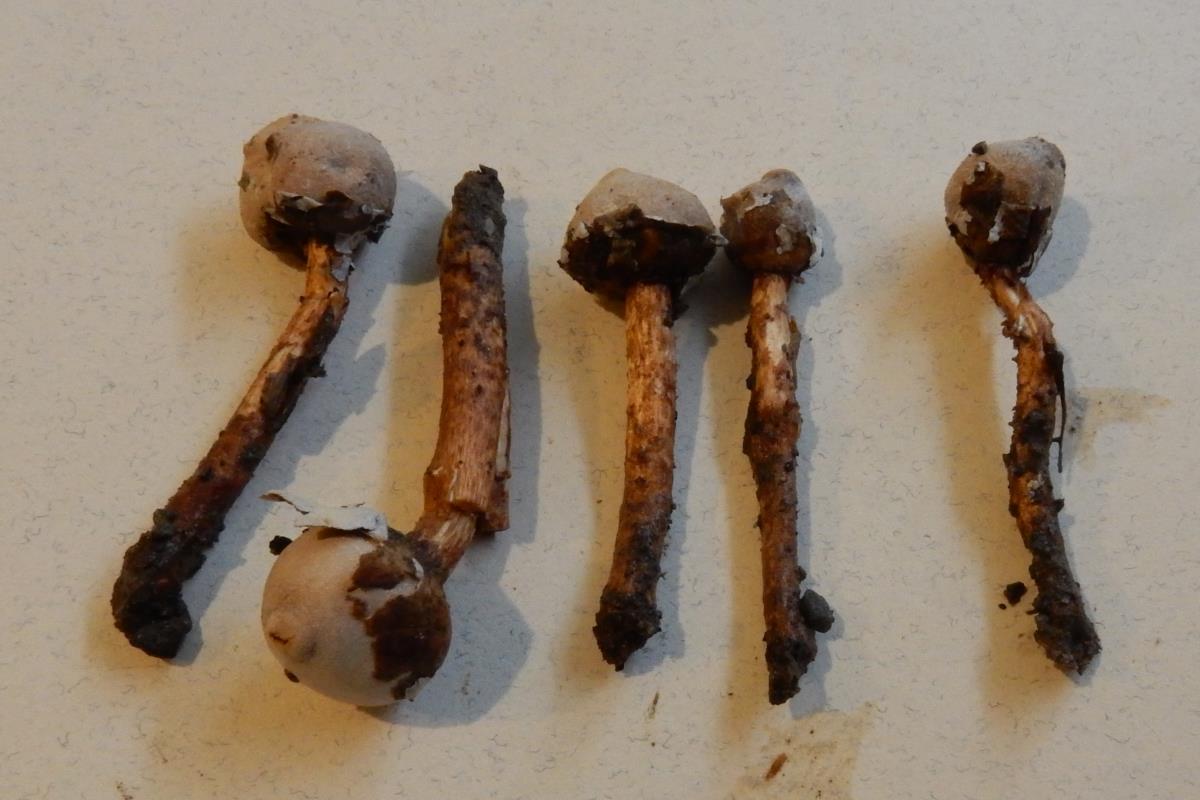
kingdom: Fungi
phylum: Basidiomycota
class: Agaricomycetes
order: Agaricales
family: Agaricaceae
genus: Tulostoma
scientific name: Tulostoma cyclophorum
